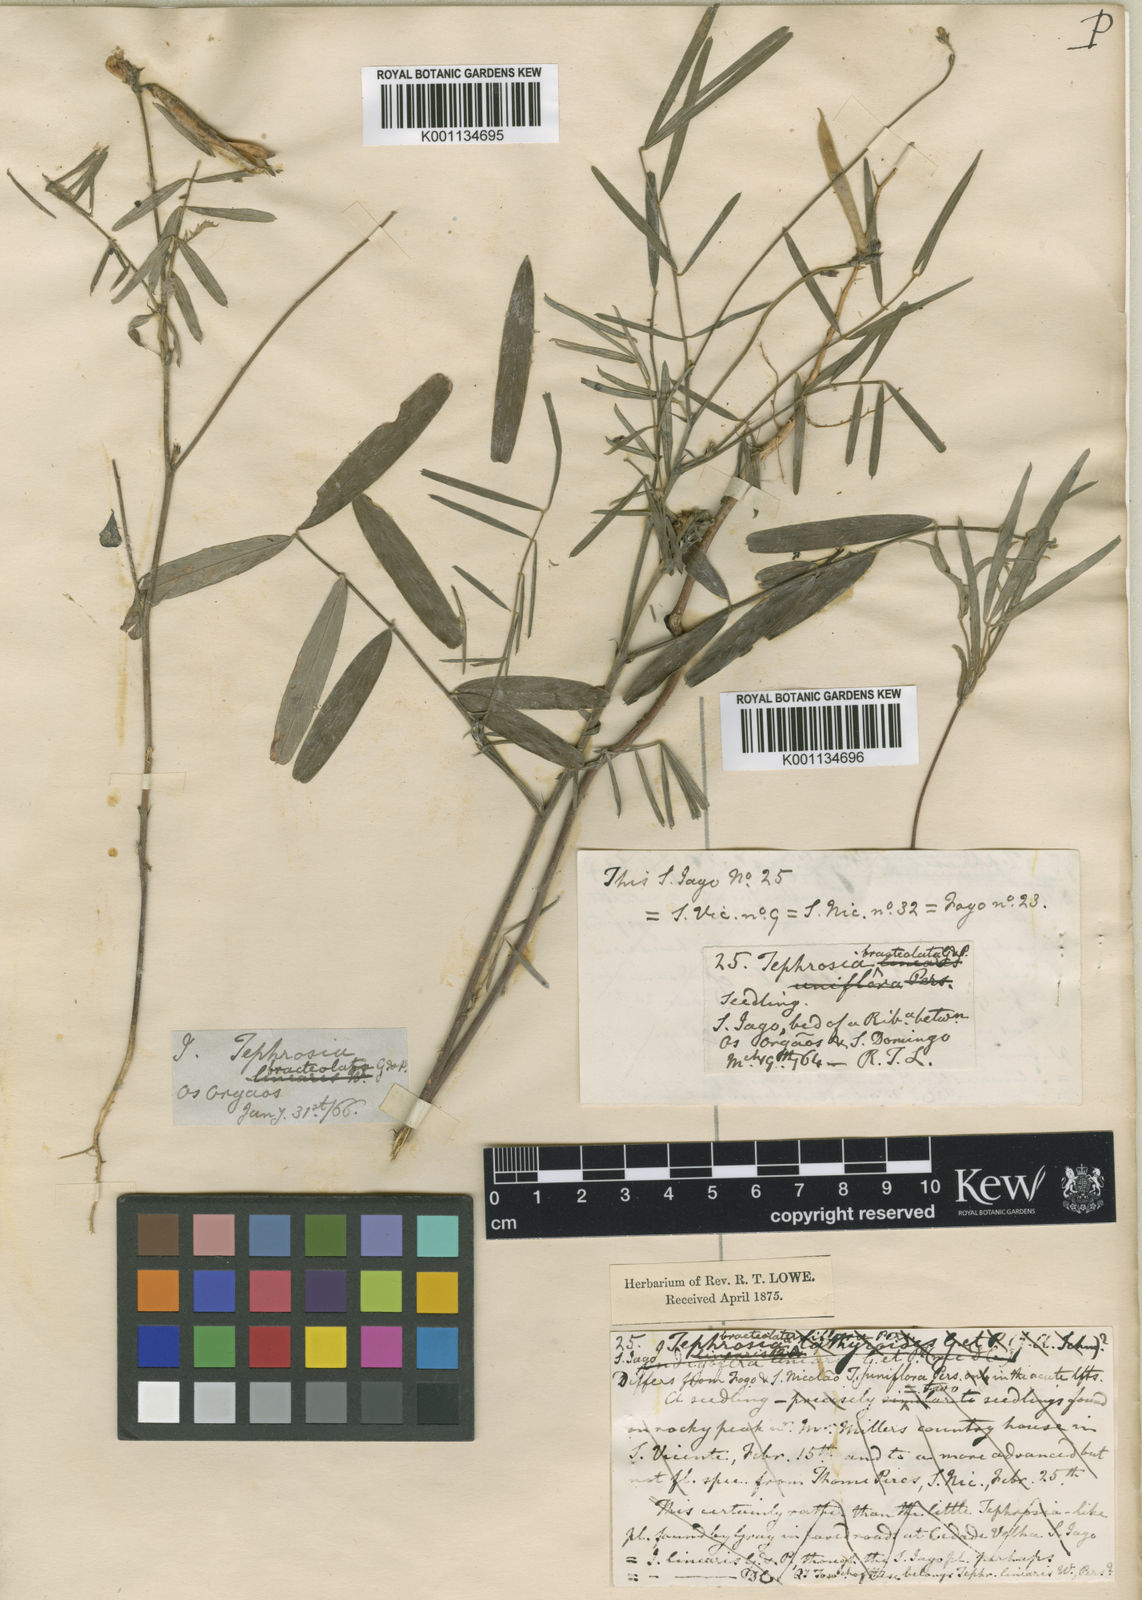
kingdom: Plantae
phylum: Tracheophyta
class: Magnoliopsida
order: Fabales
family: Fabaceae
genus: Tephrosia
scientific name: Tephrosia bracteolata
